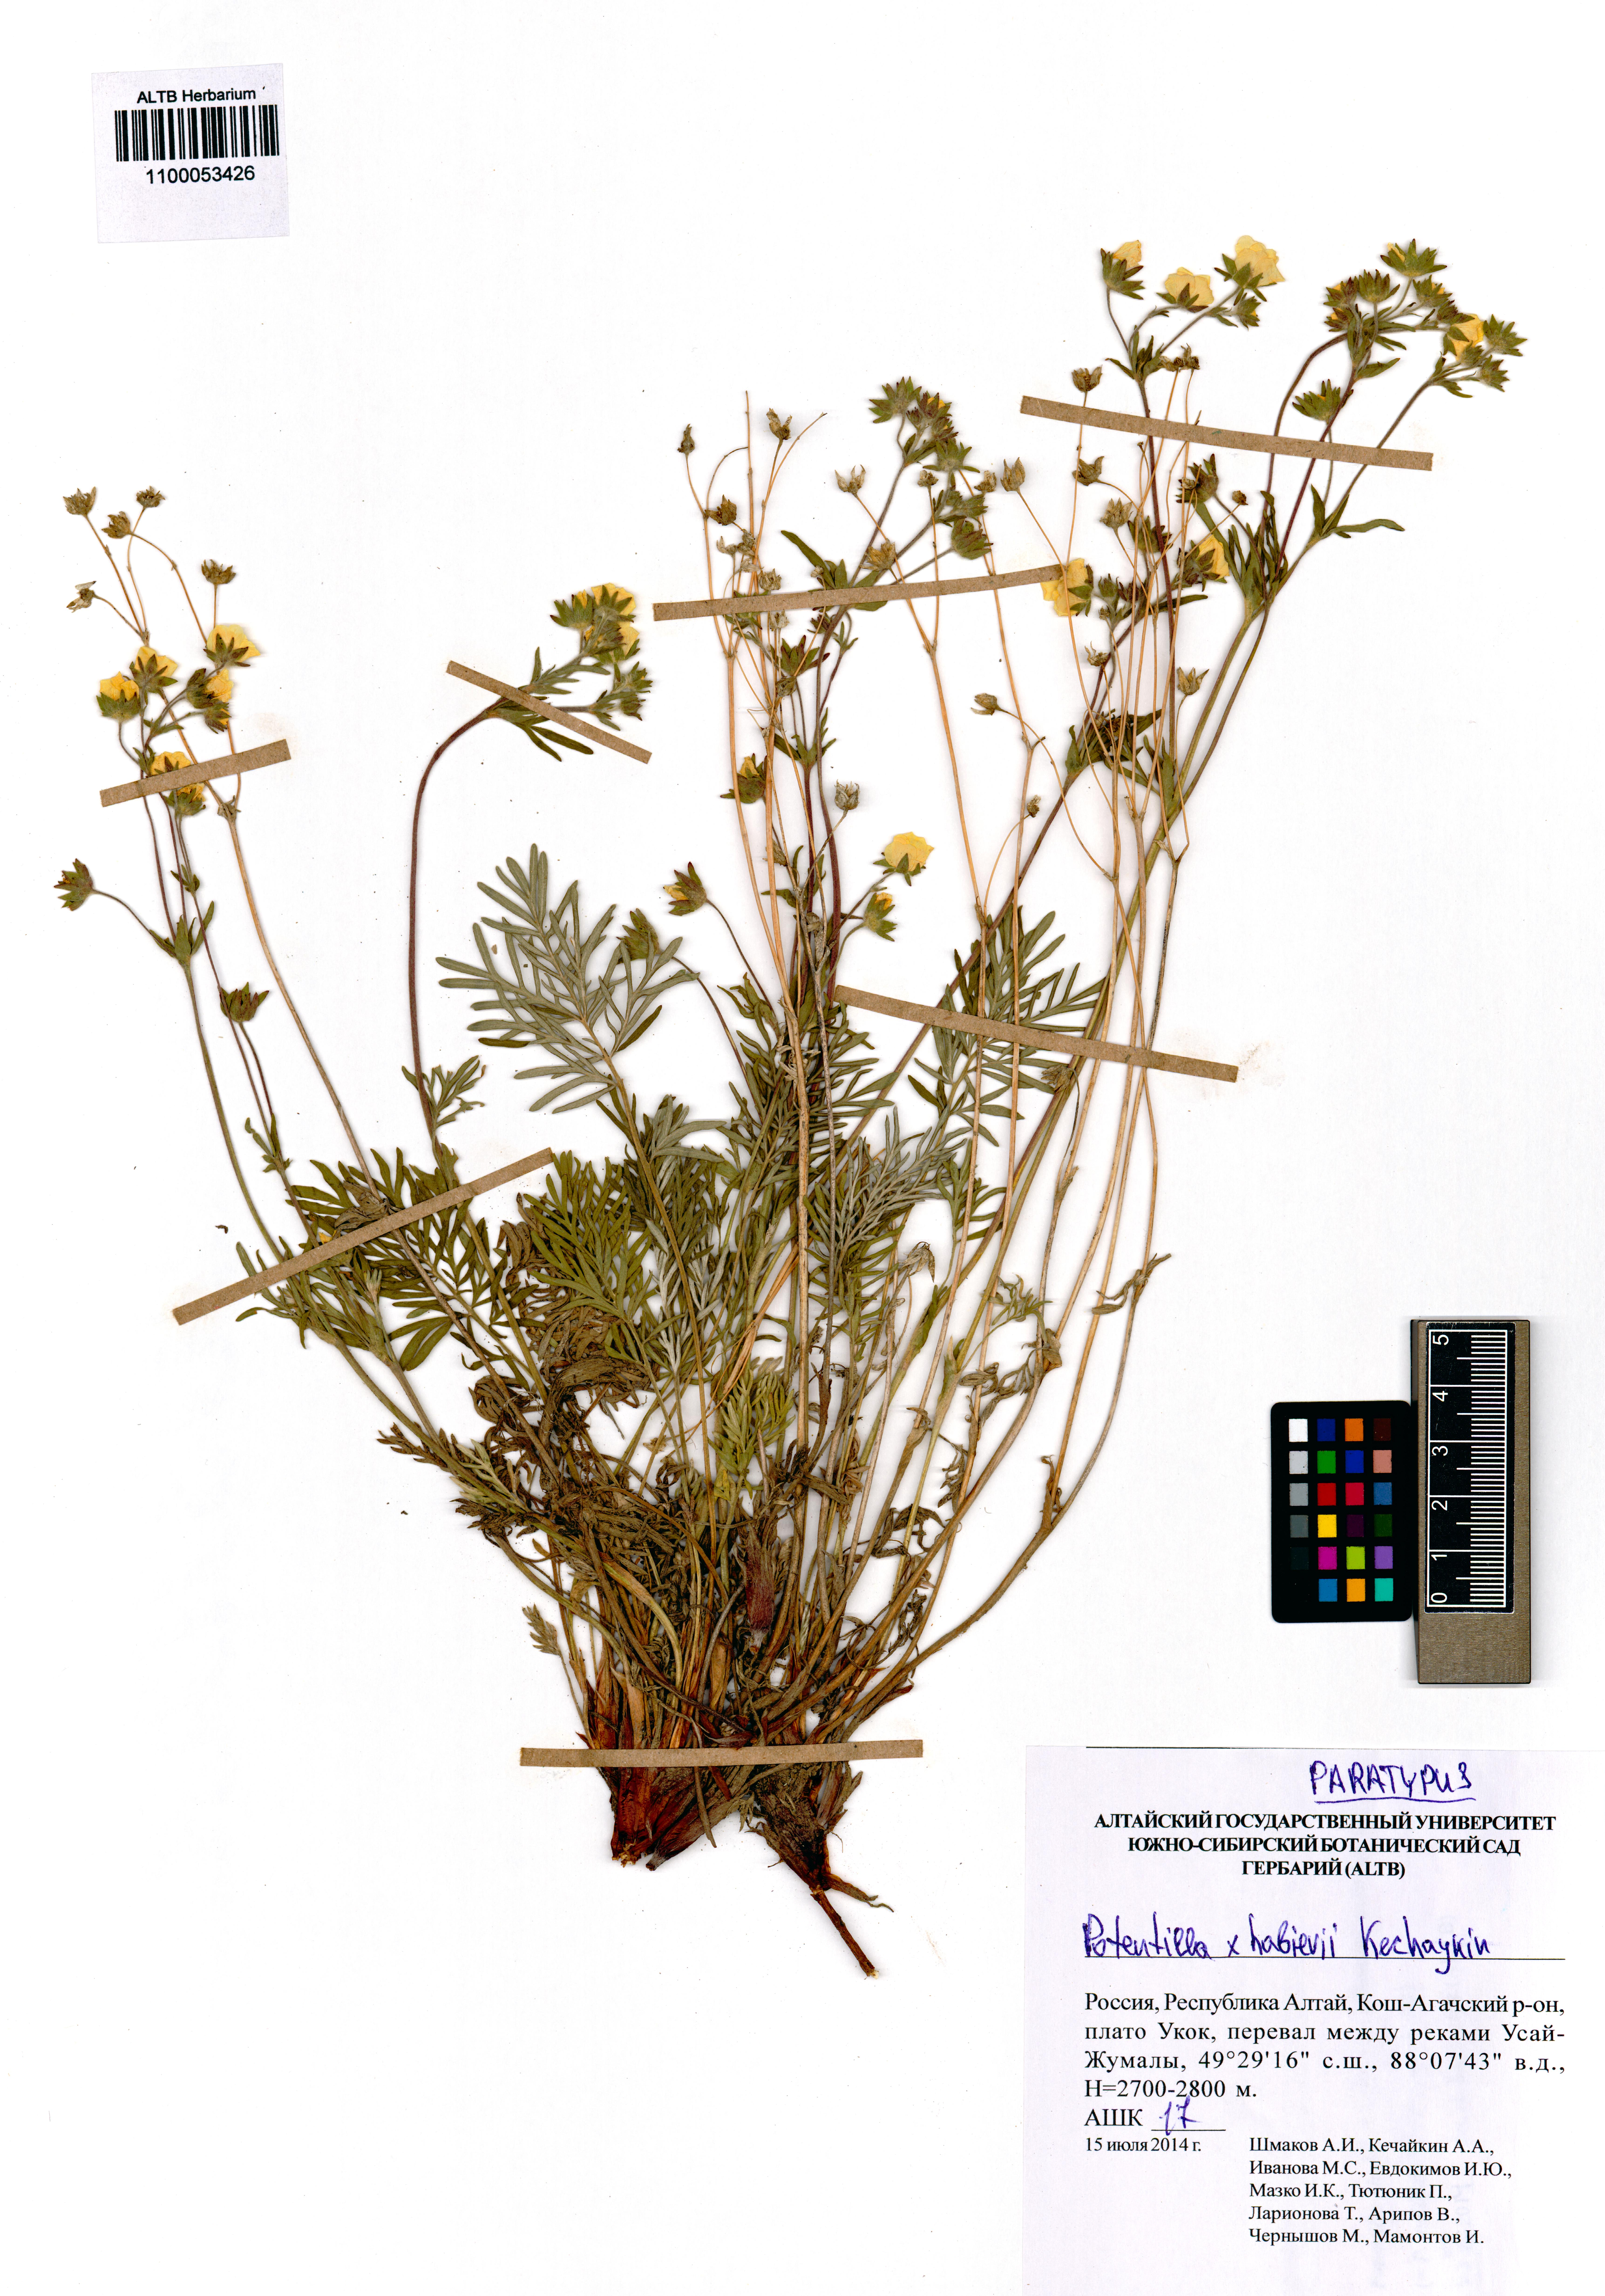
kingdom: Plantae
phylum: Tracheophyta
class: Magnoliopsida
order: Rosales
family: Rosaceae
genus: Potentilla
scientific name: Potentilla habievii
